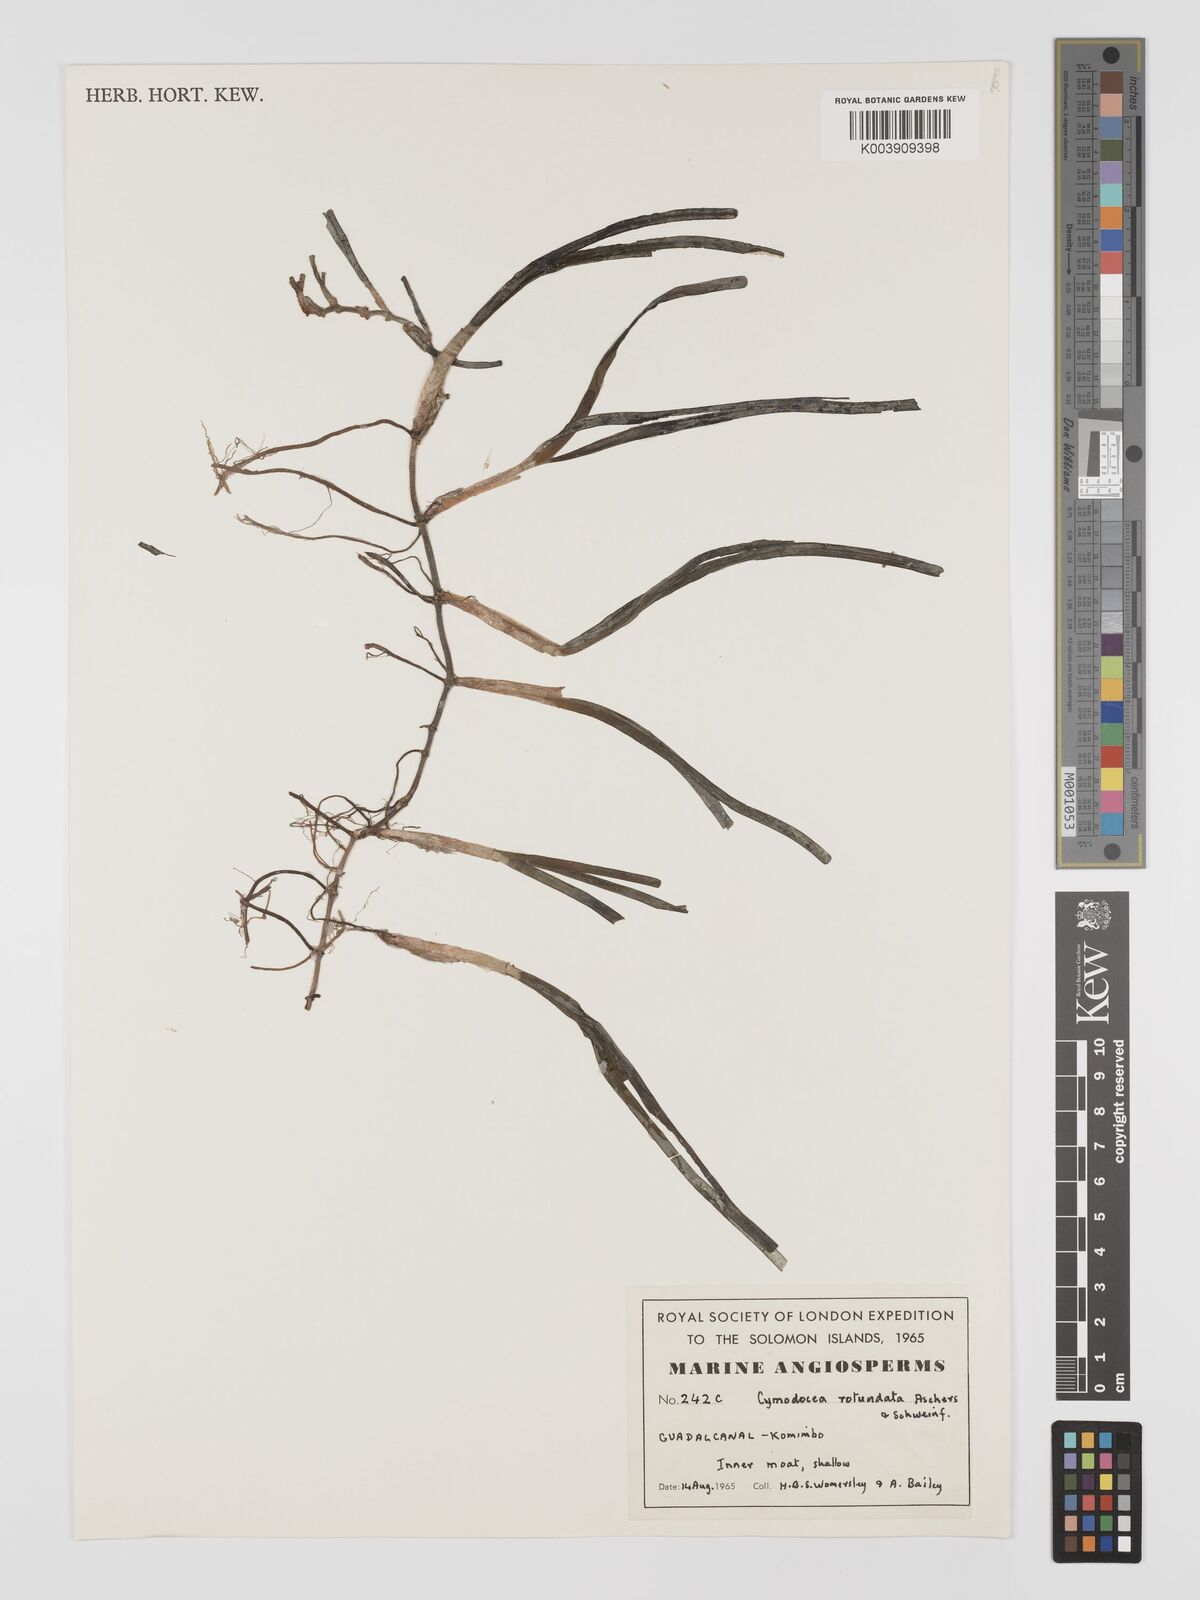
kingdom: Plantae
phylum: Tracheophyta
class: Liliopsida
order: Alismatales
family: Cymodoceaceae
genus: Cymodocea
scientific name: Cymodocea rotundata
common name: Species code: cr
